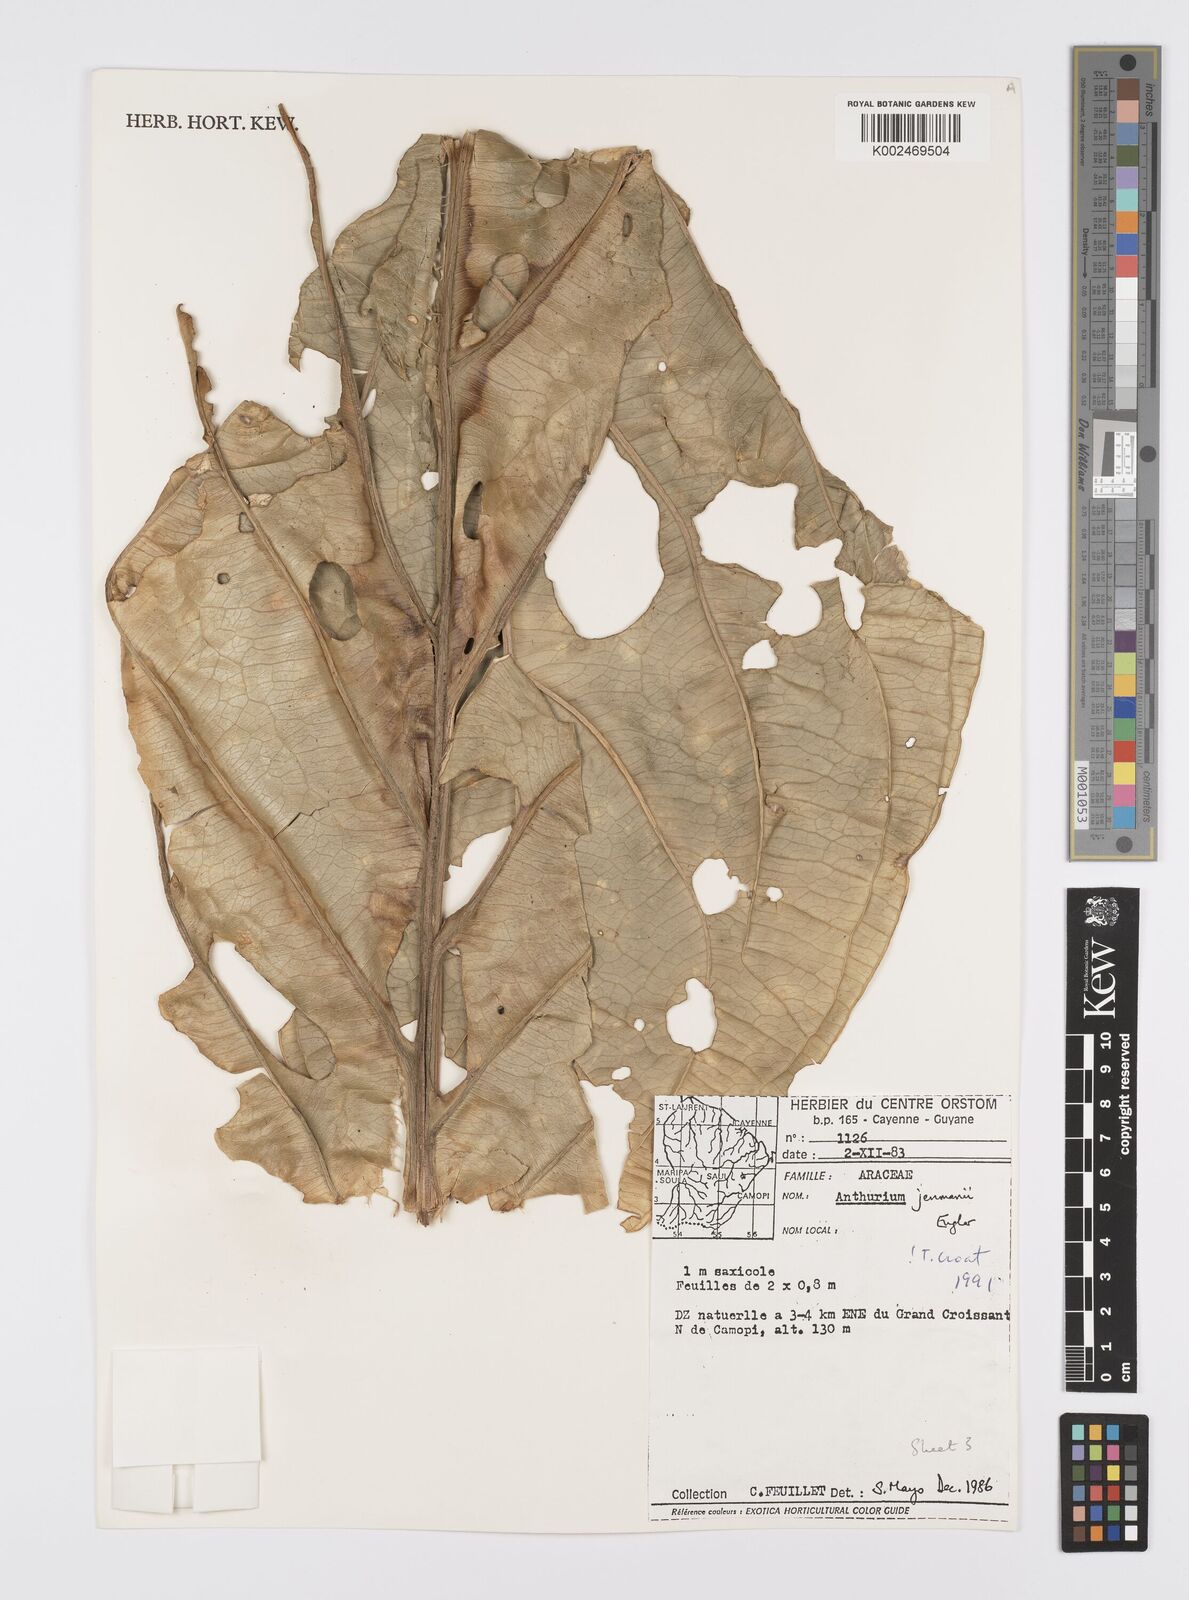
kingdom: Plantae
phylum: Tracheophyta
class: Liliopsida
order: Alismatales
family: Araceae
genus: Anthurium
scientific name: Anthurium jenmanii
